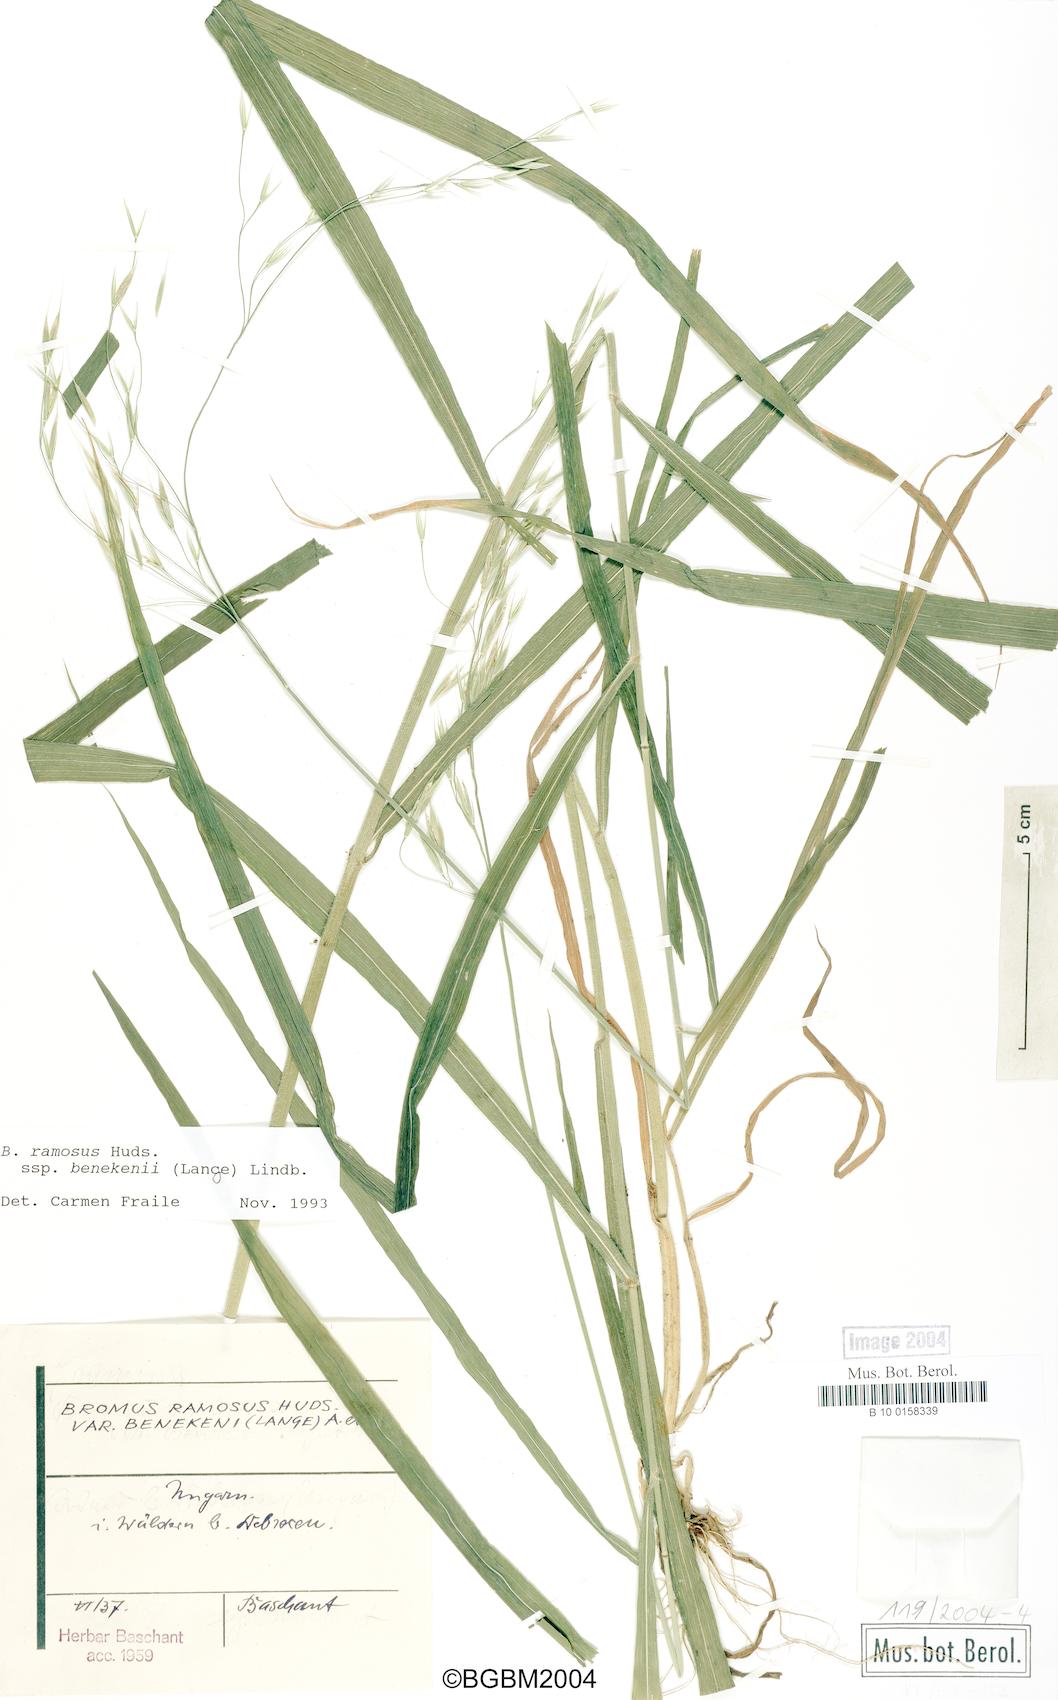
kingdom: Plantae
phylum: Tracheophyta
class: Liliopsida
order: Poales
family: Poaceae
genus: Bromus
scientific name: Bromus benekenii
